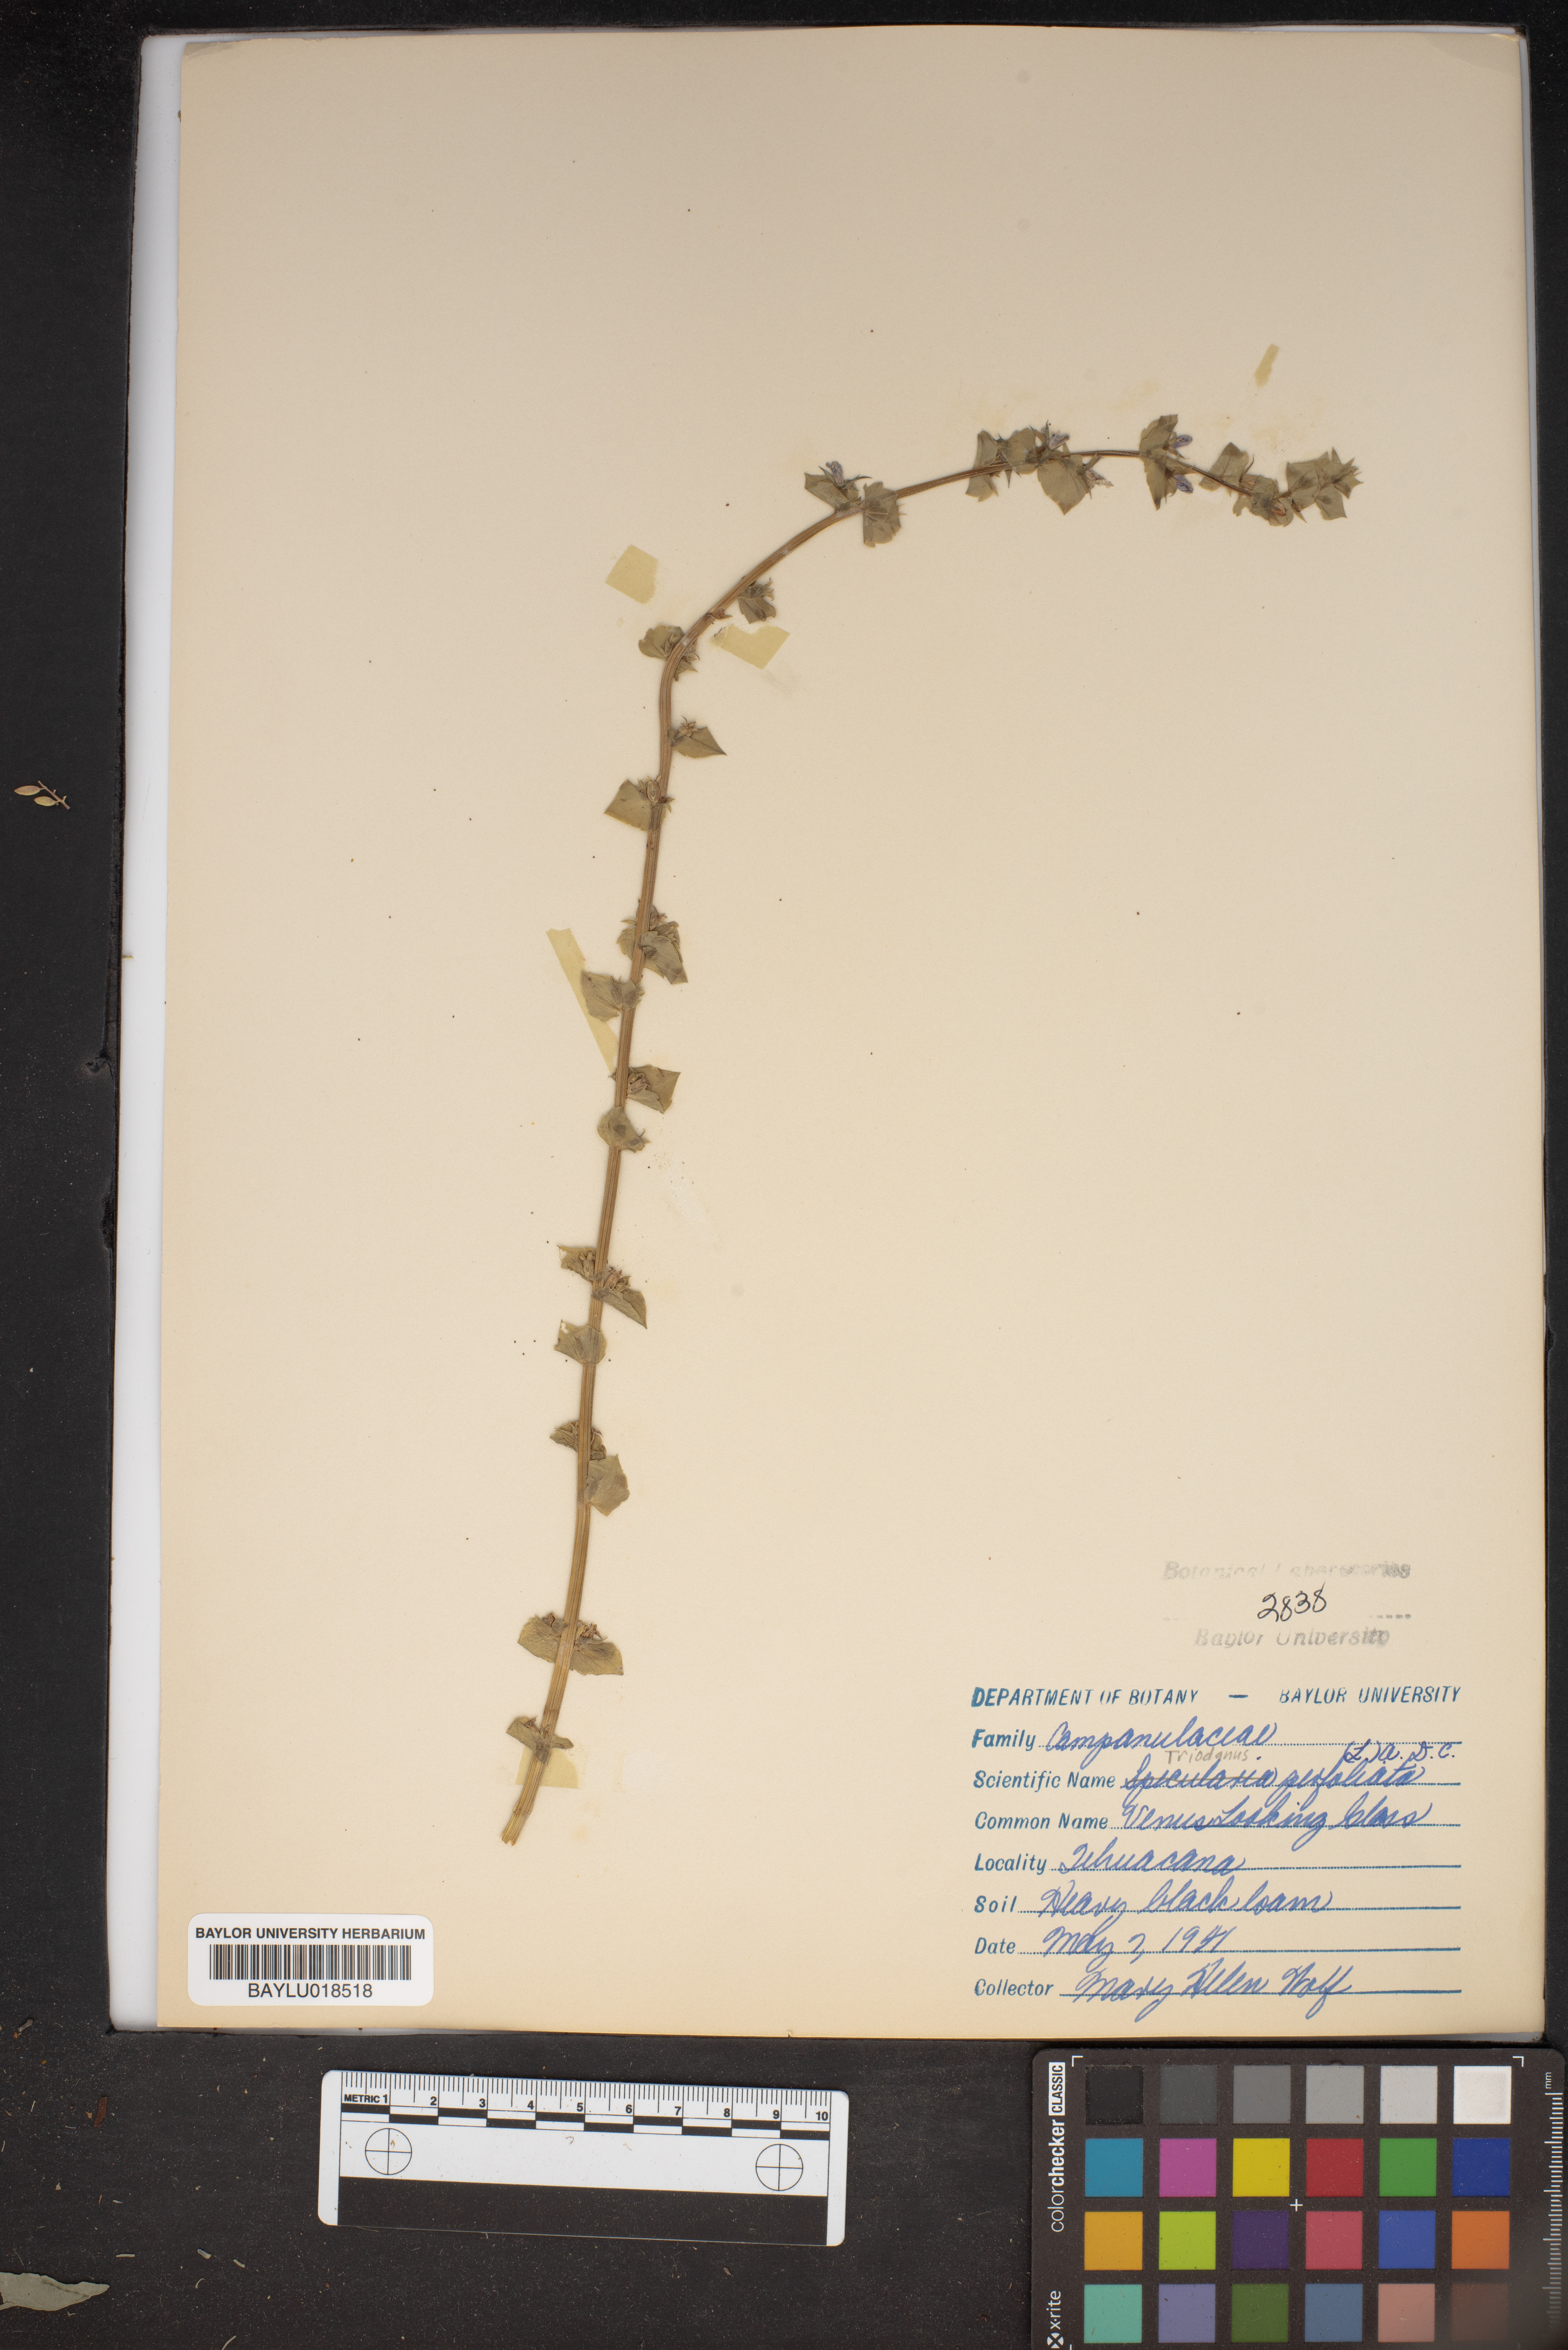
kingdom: Plantae
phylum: Tracheophyta
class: Magnoliopsida
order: Asterales
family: Campanulaceae
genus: Triodanis
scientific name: Triodanis perfoliata
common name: Clasping venus' looking-glass
